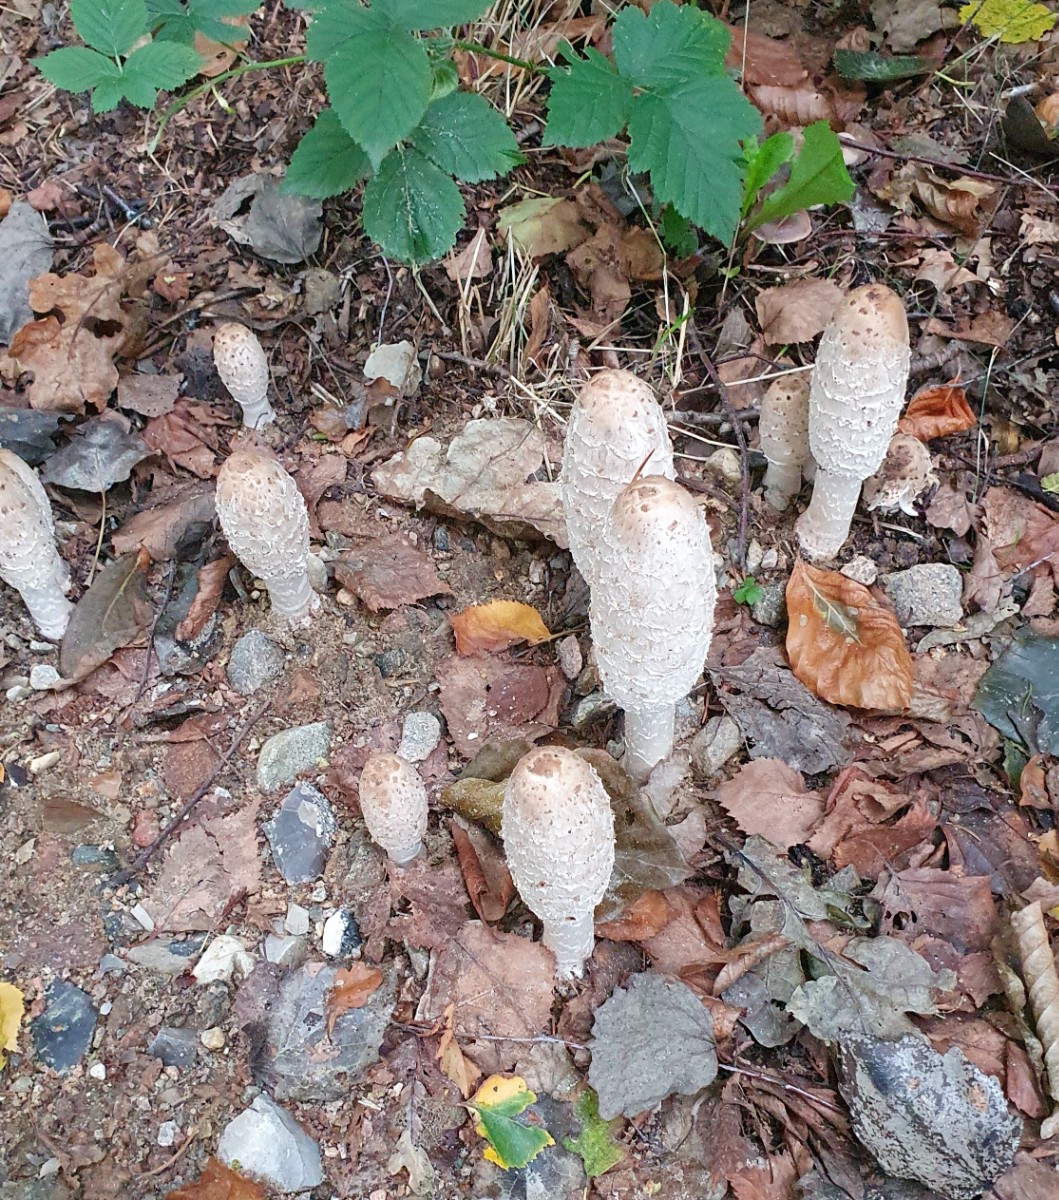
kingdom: Fungi
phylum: Basidiomycota
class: Agaricomycetes
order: Agaricales
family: Agaricaceae
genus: Coprinus
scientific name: Coprinus comatus
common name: stor parykhat
